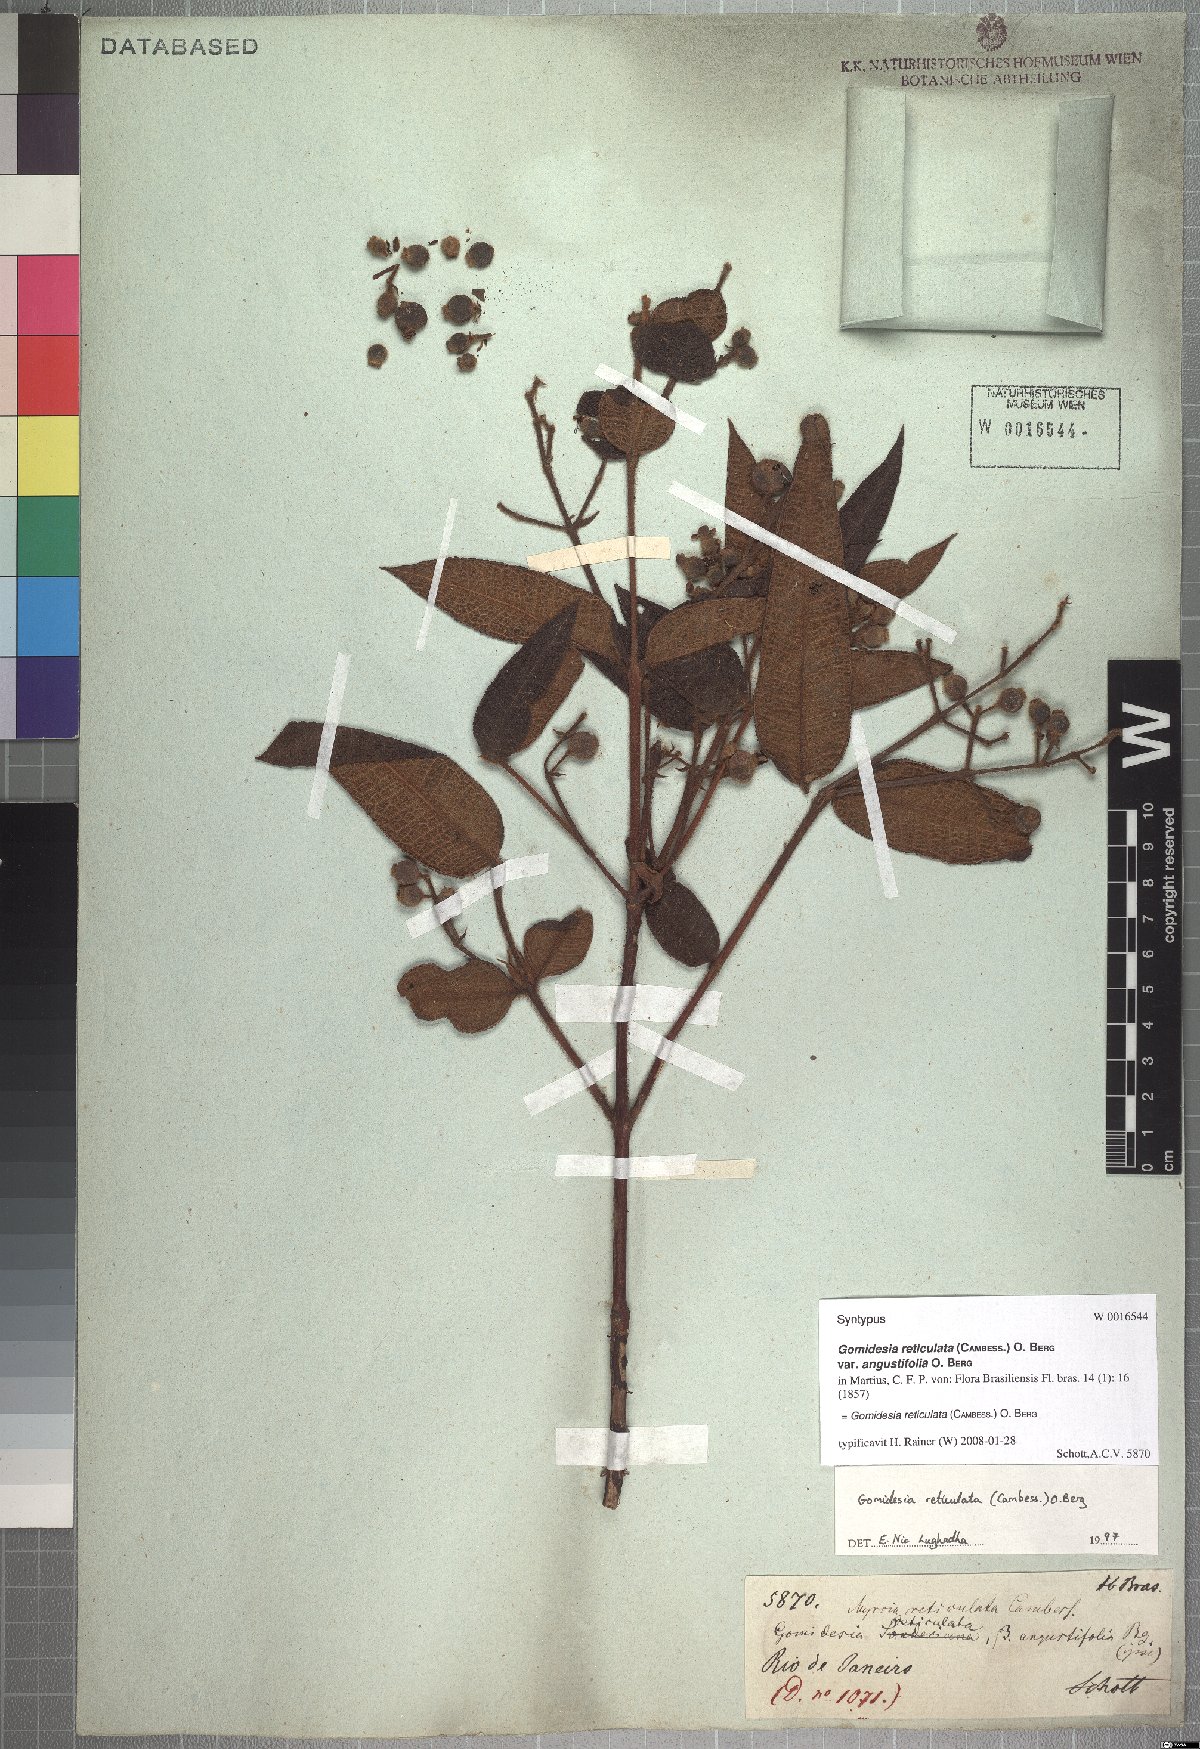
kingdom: Plantae
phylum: Tracheophyta
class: Magnoliopsida
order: Myrtales
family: Myrtaceae
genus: Myrcia
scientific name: Myrcia reticulata
